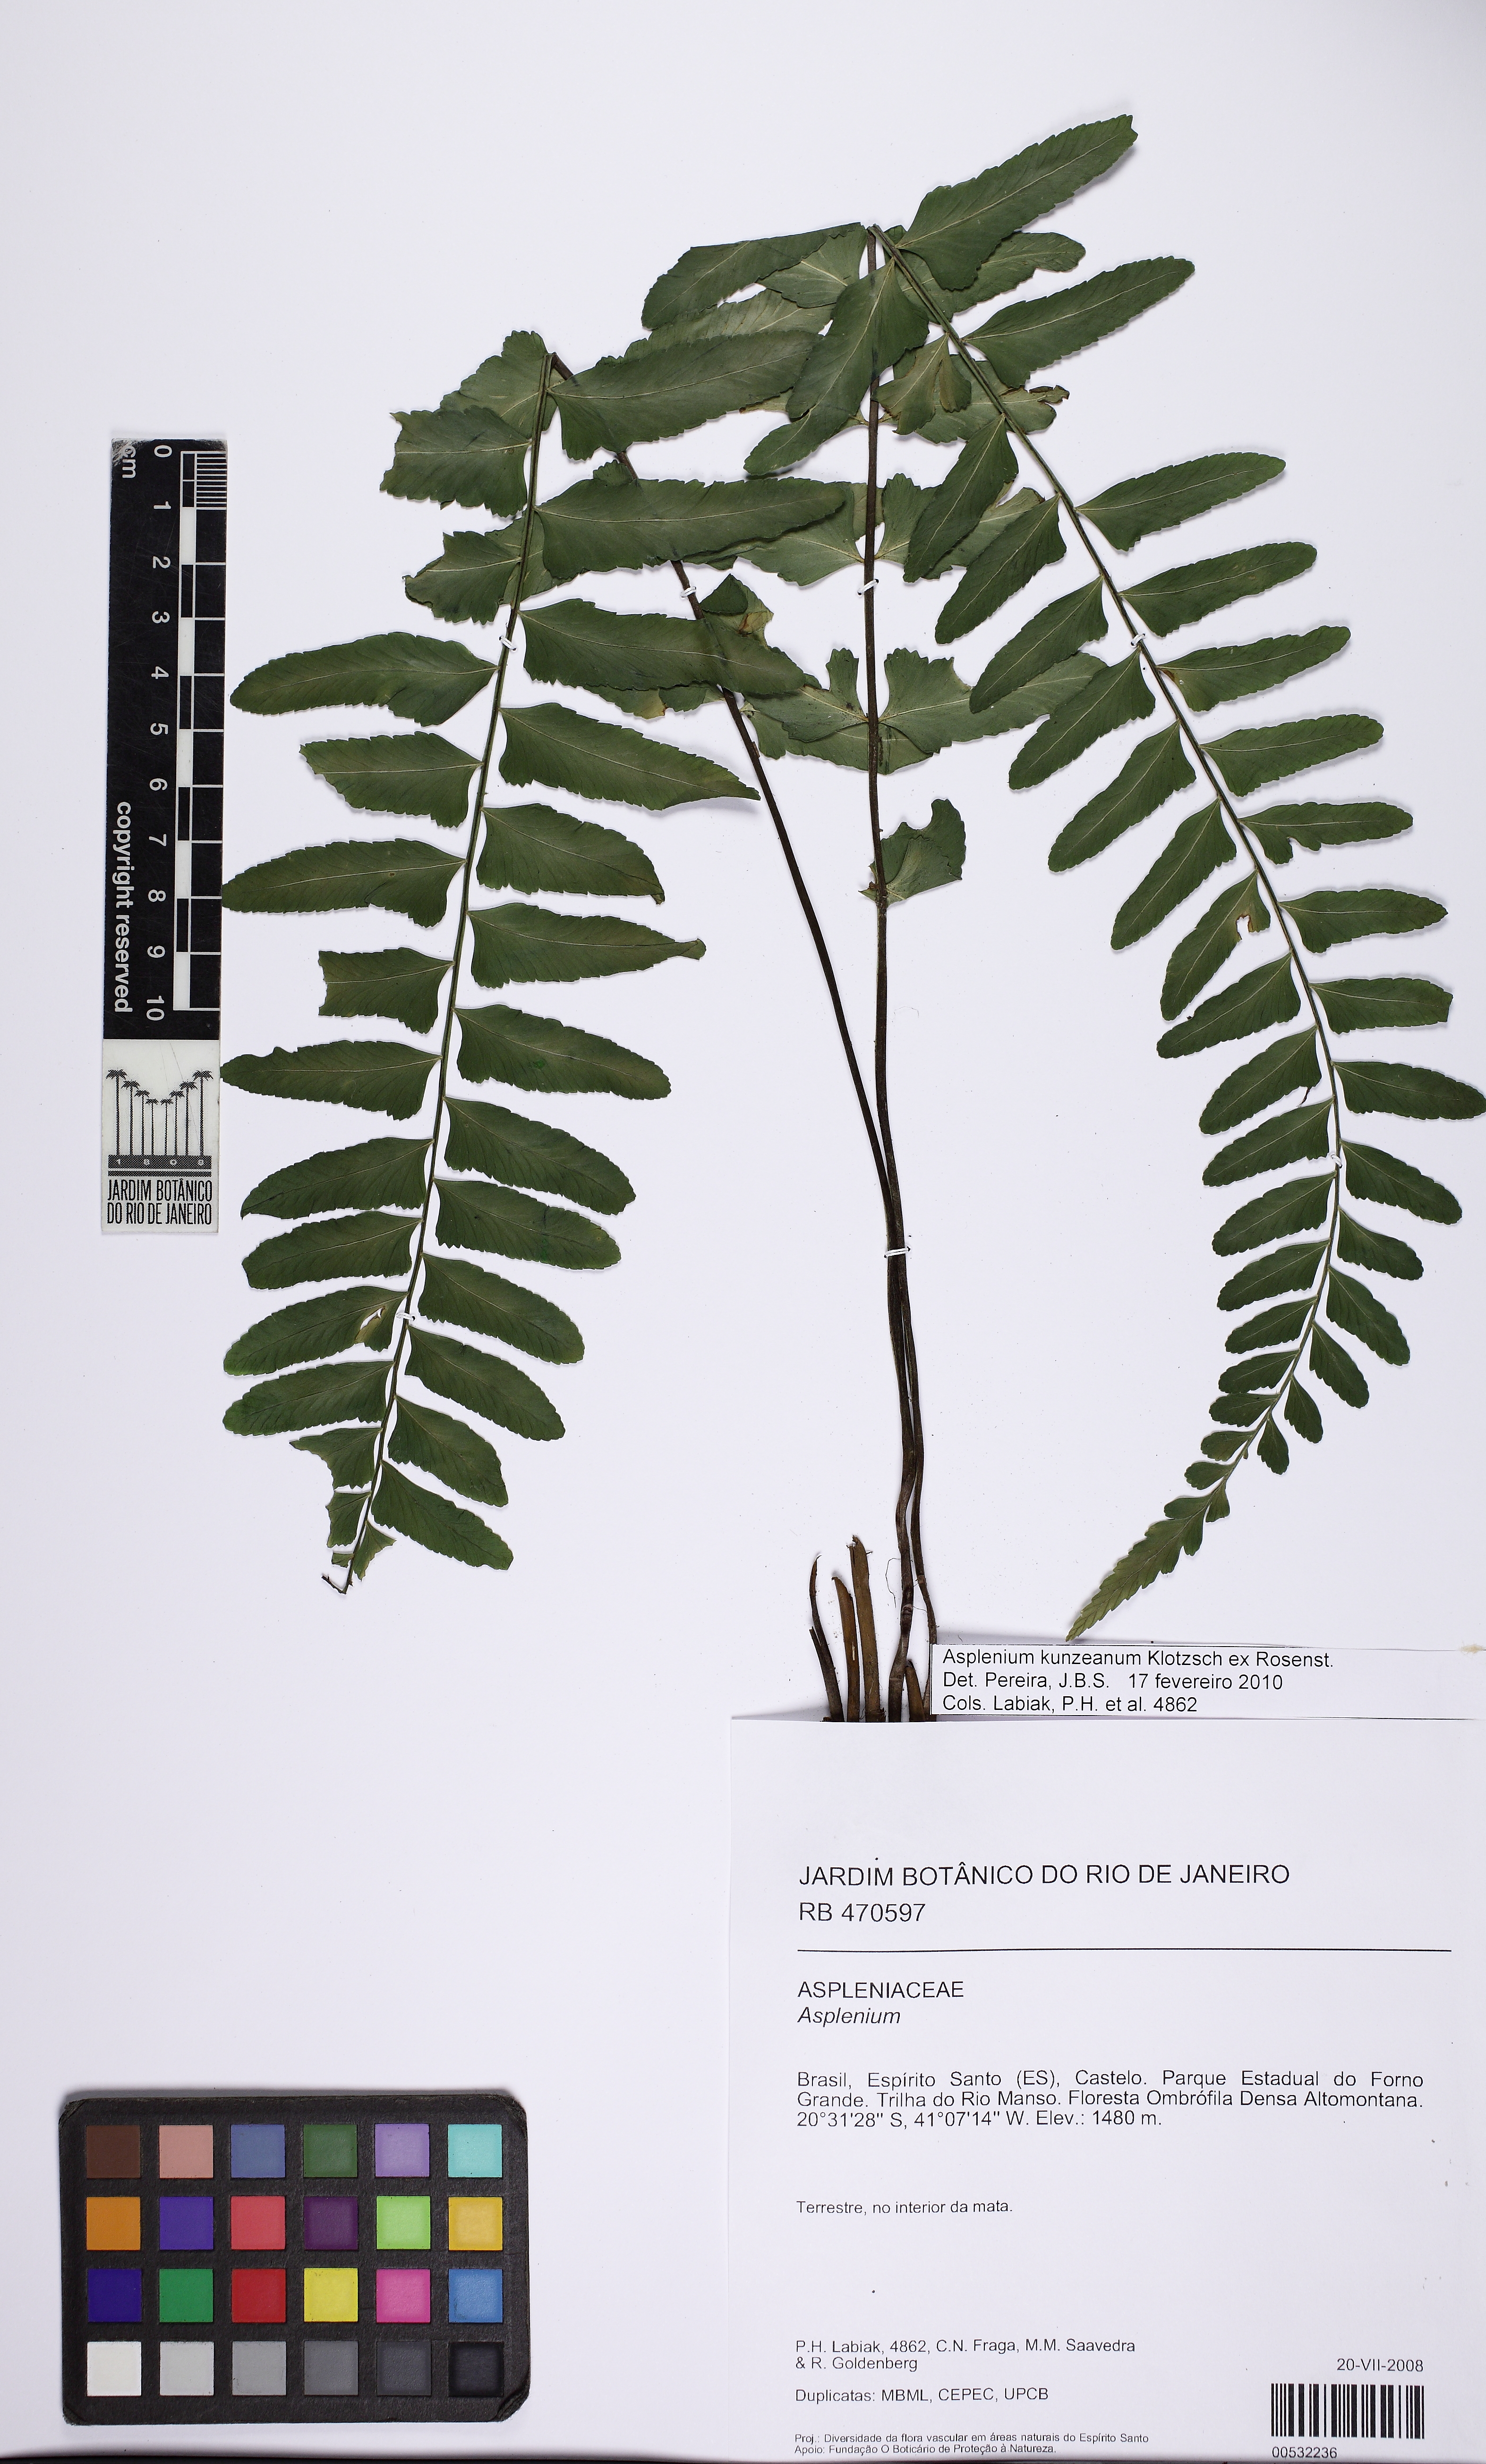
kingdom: Plantae
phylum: Tracheophyta
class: Polypodiopsida
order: Polypodiales
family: Aspleniaceae
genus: Asplenium
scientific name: Asplenium kunzeanum
